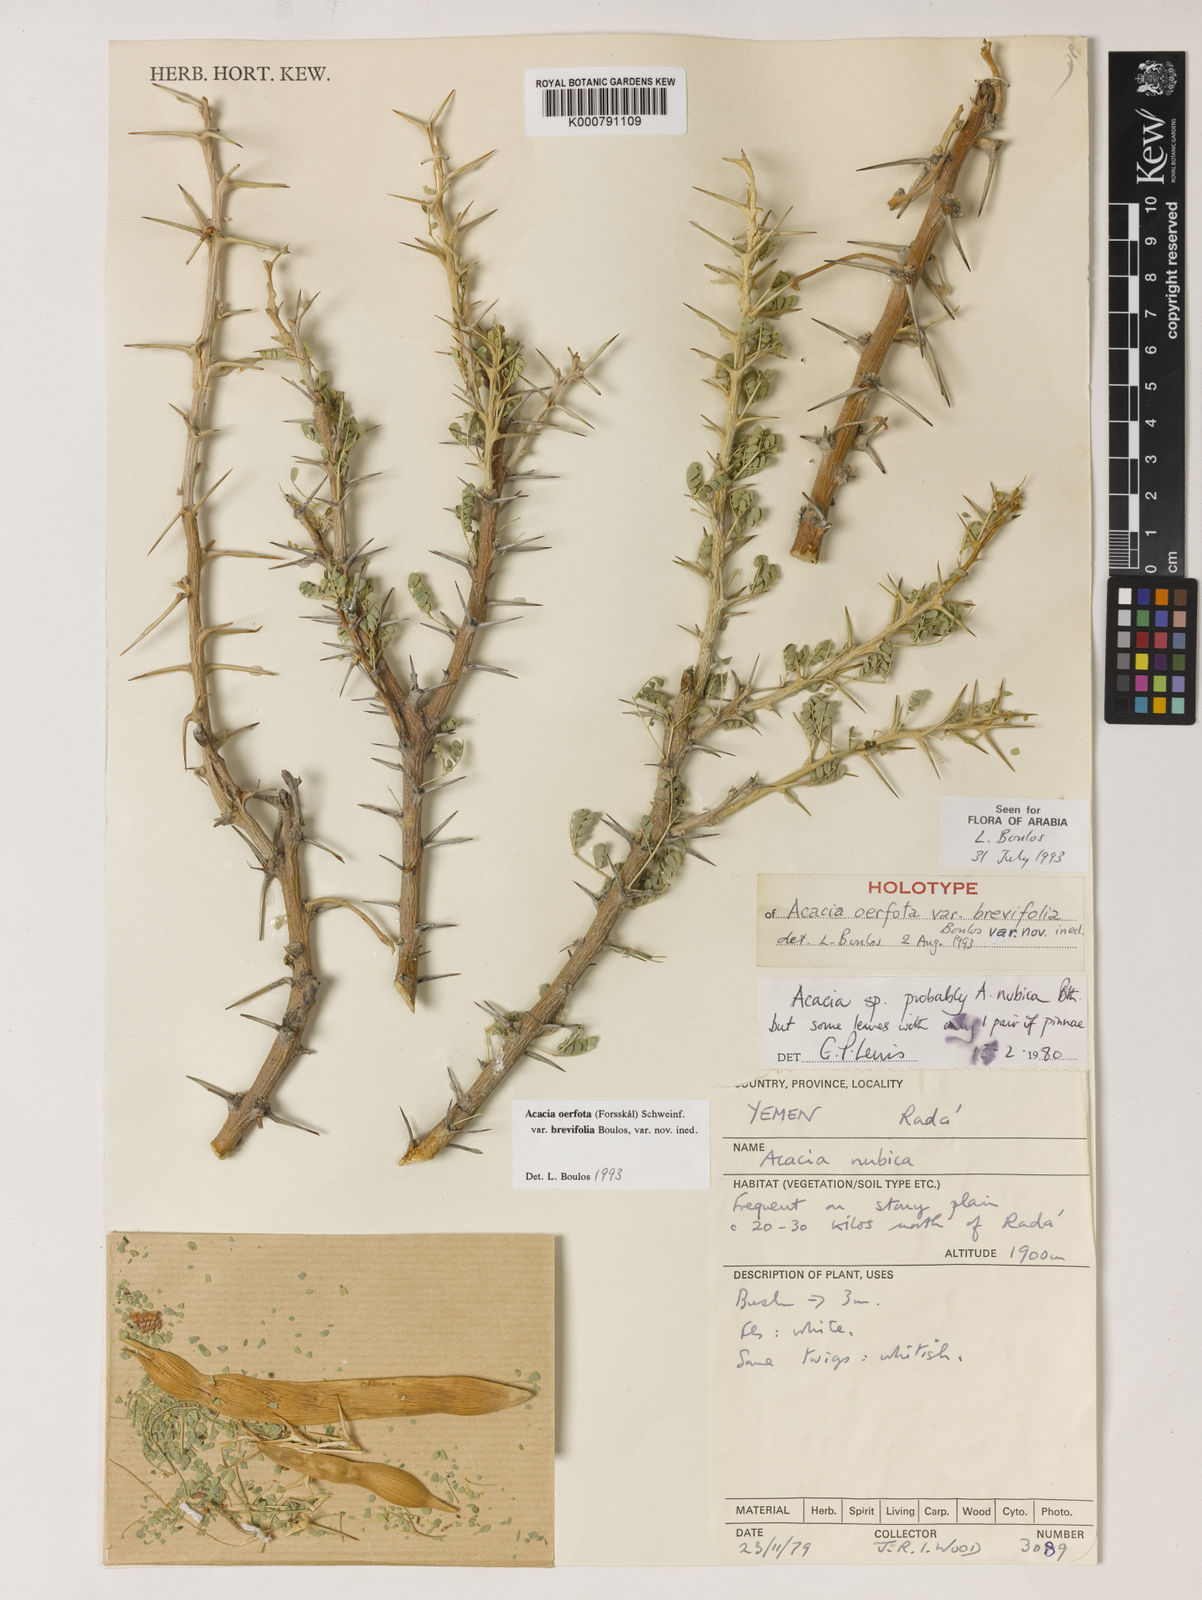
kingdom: Plantae
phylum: Tracheophyta
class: Magnoliopsida
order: Fabales
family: Fabaceae
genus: Vachellia
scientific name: Vachellia oerfota
